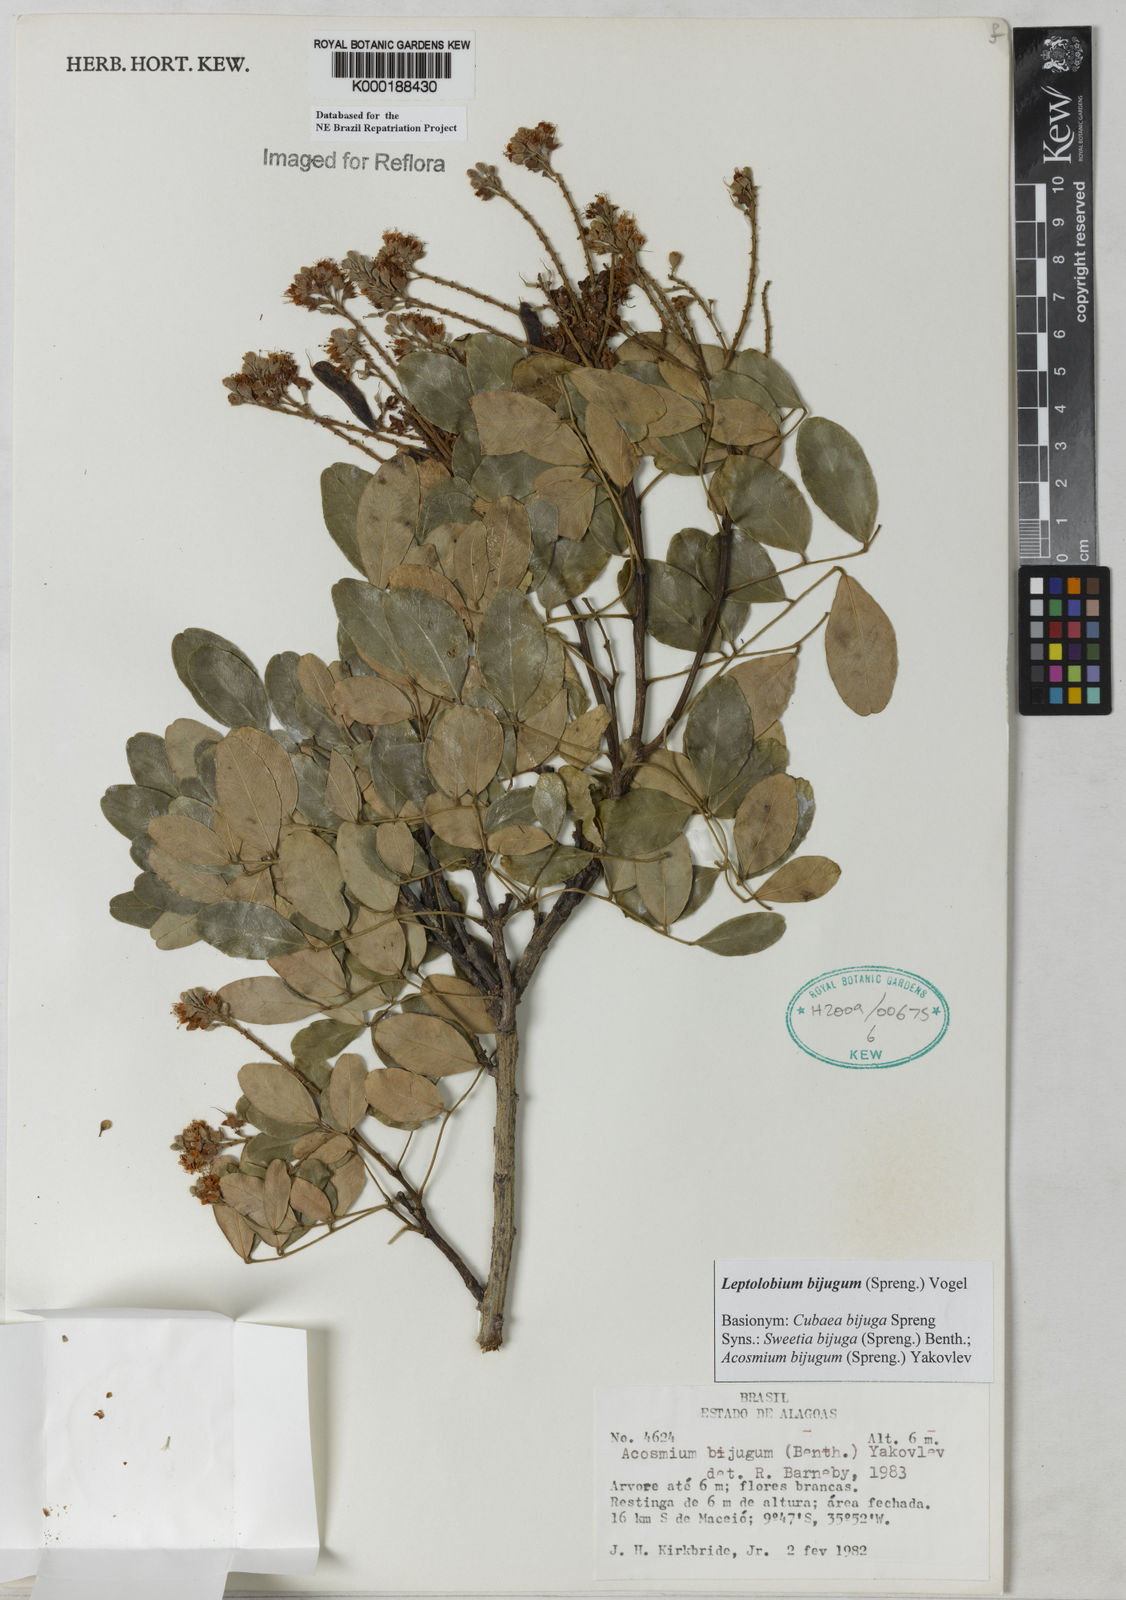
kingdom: Plantae
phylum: Tracheophyta
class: Magnoliopsida
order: Fabales
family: Fabaceae
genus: Leptolobium
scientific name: Leptolobium bijugum
